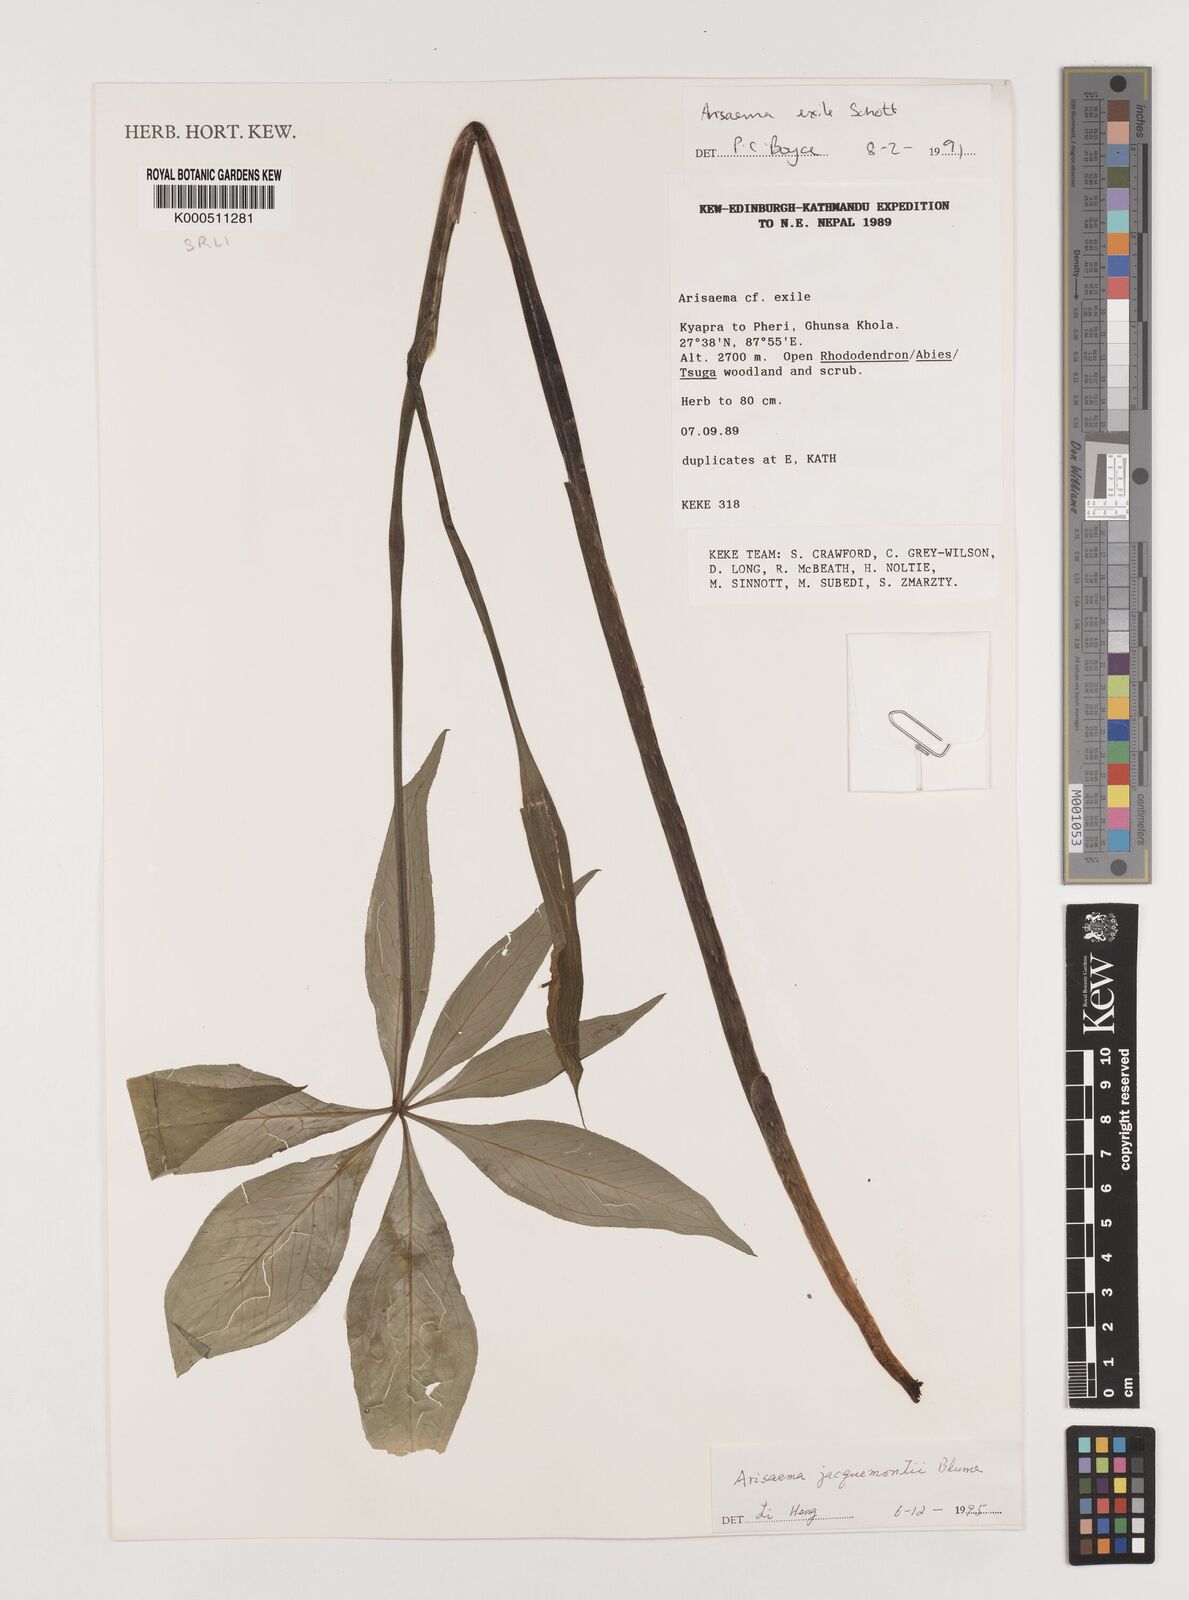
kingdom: Plantae
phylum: Tracheophyta
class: Liliopsida
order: Alismatales
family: Araceae
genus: Arisaema
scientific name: Arisaema jacquemontii
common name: Jacquemont's cobra-lily
